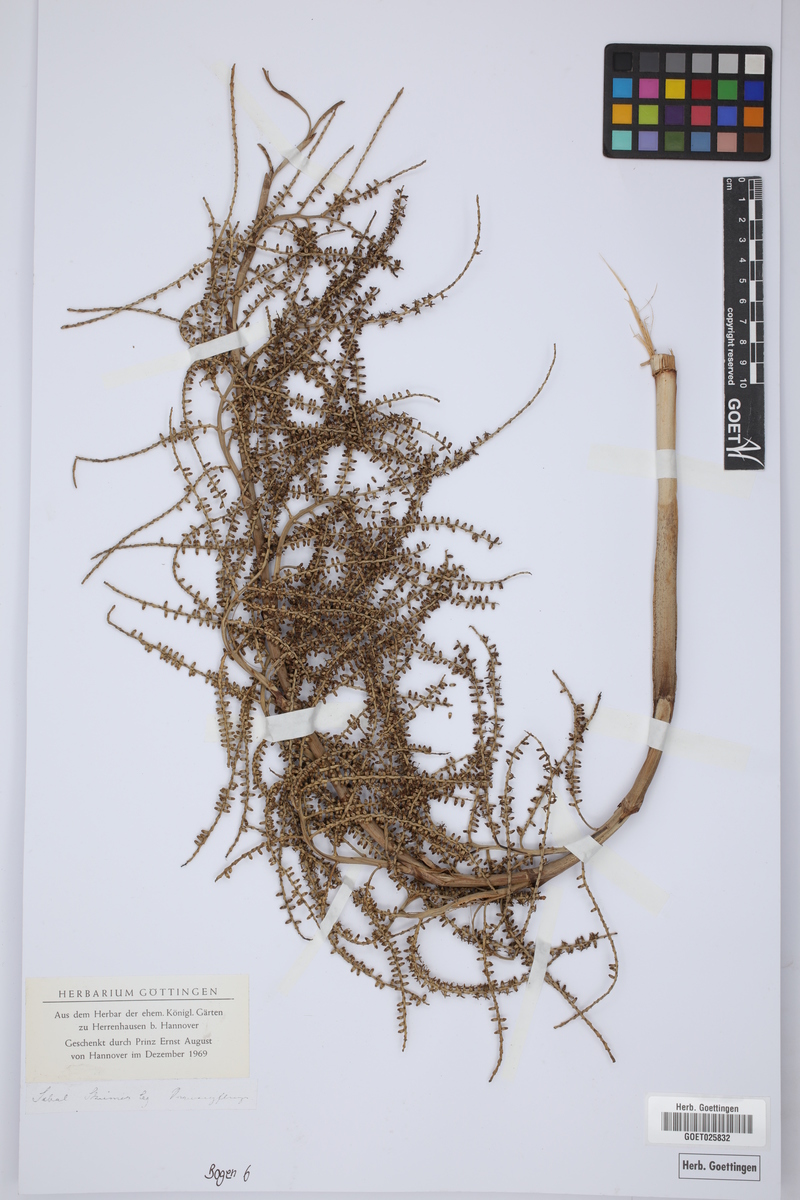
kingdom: Plantae
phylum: Tracheophyta
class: Liliopsida
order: Arecales
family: Arecaceae
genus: Sabal
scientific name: Sabal
